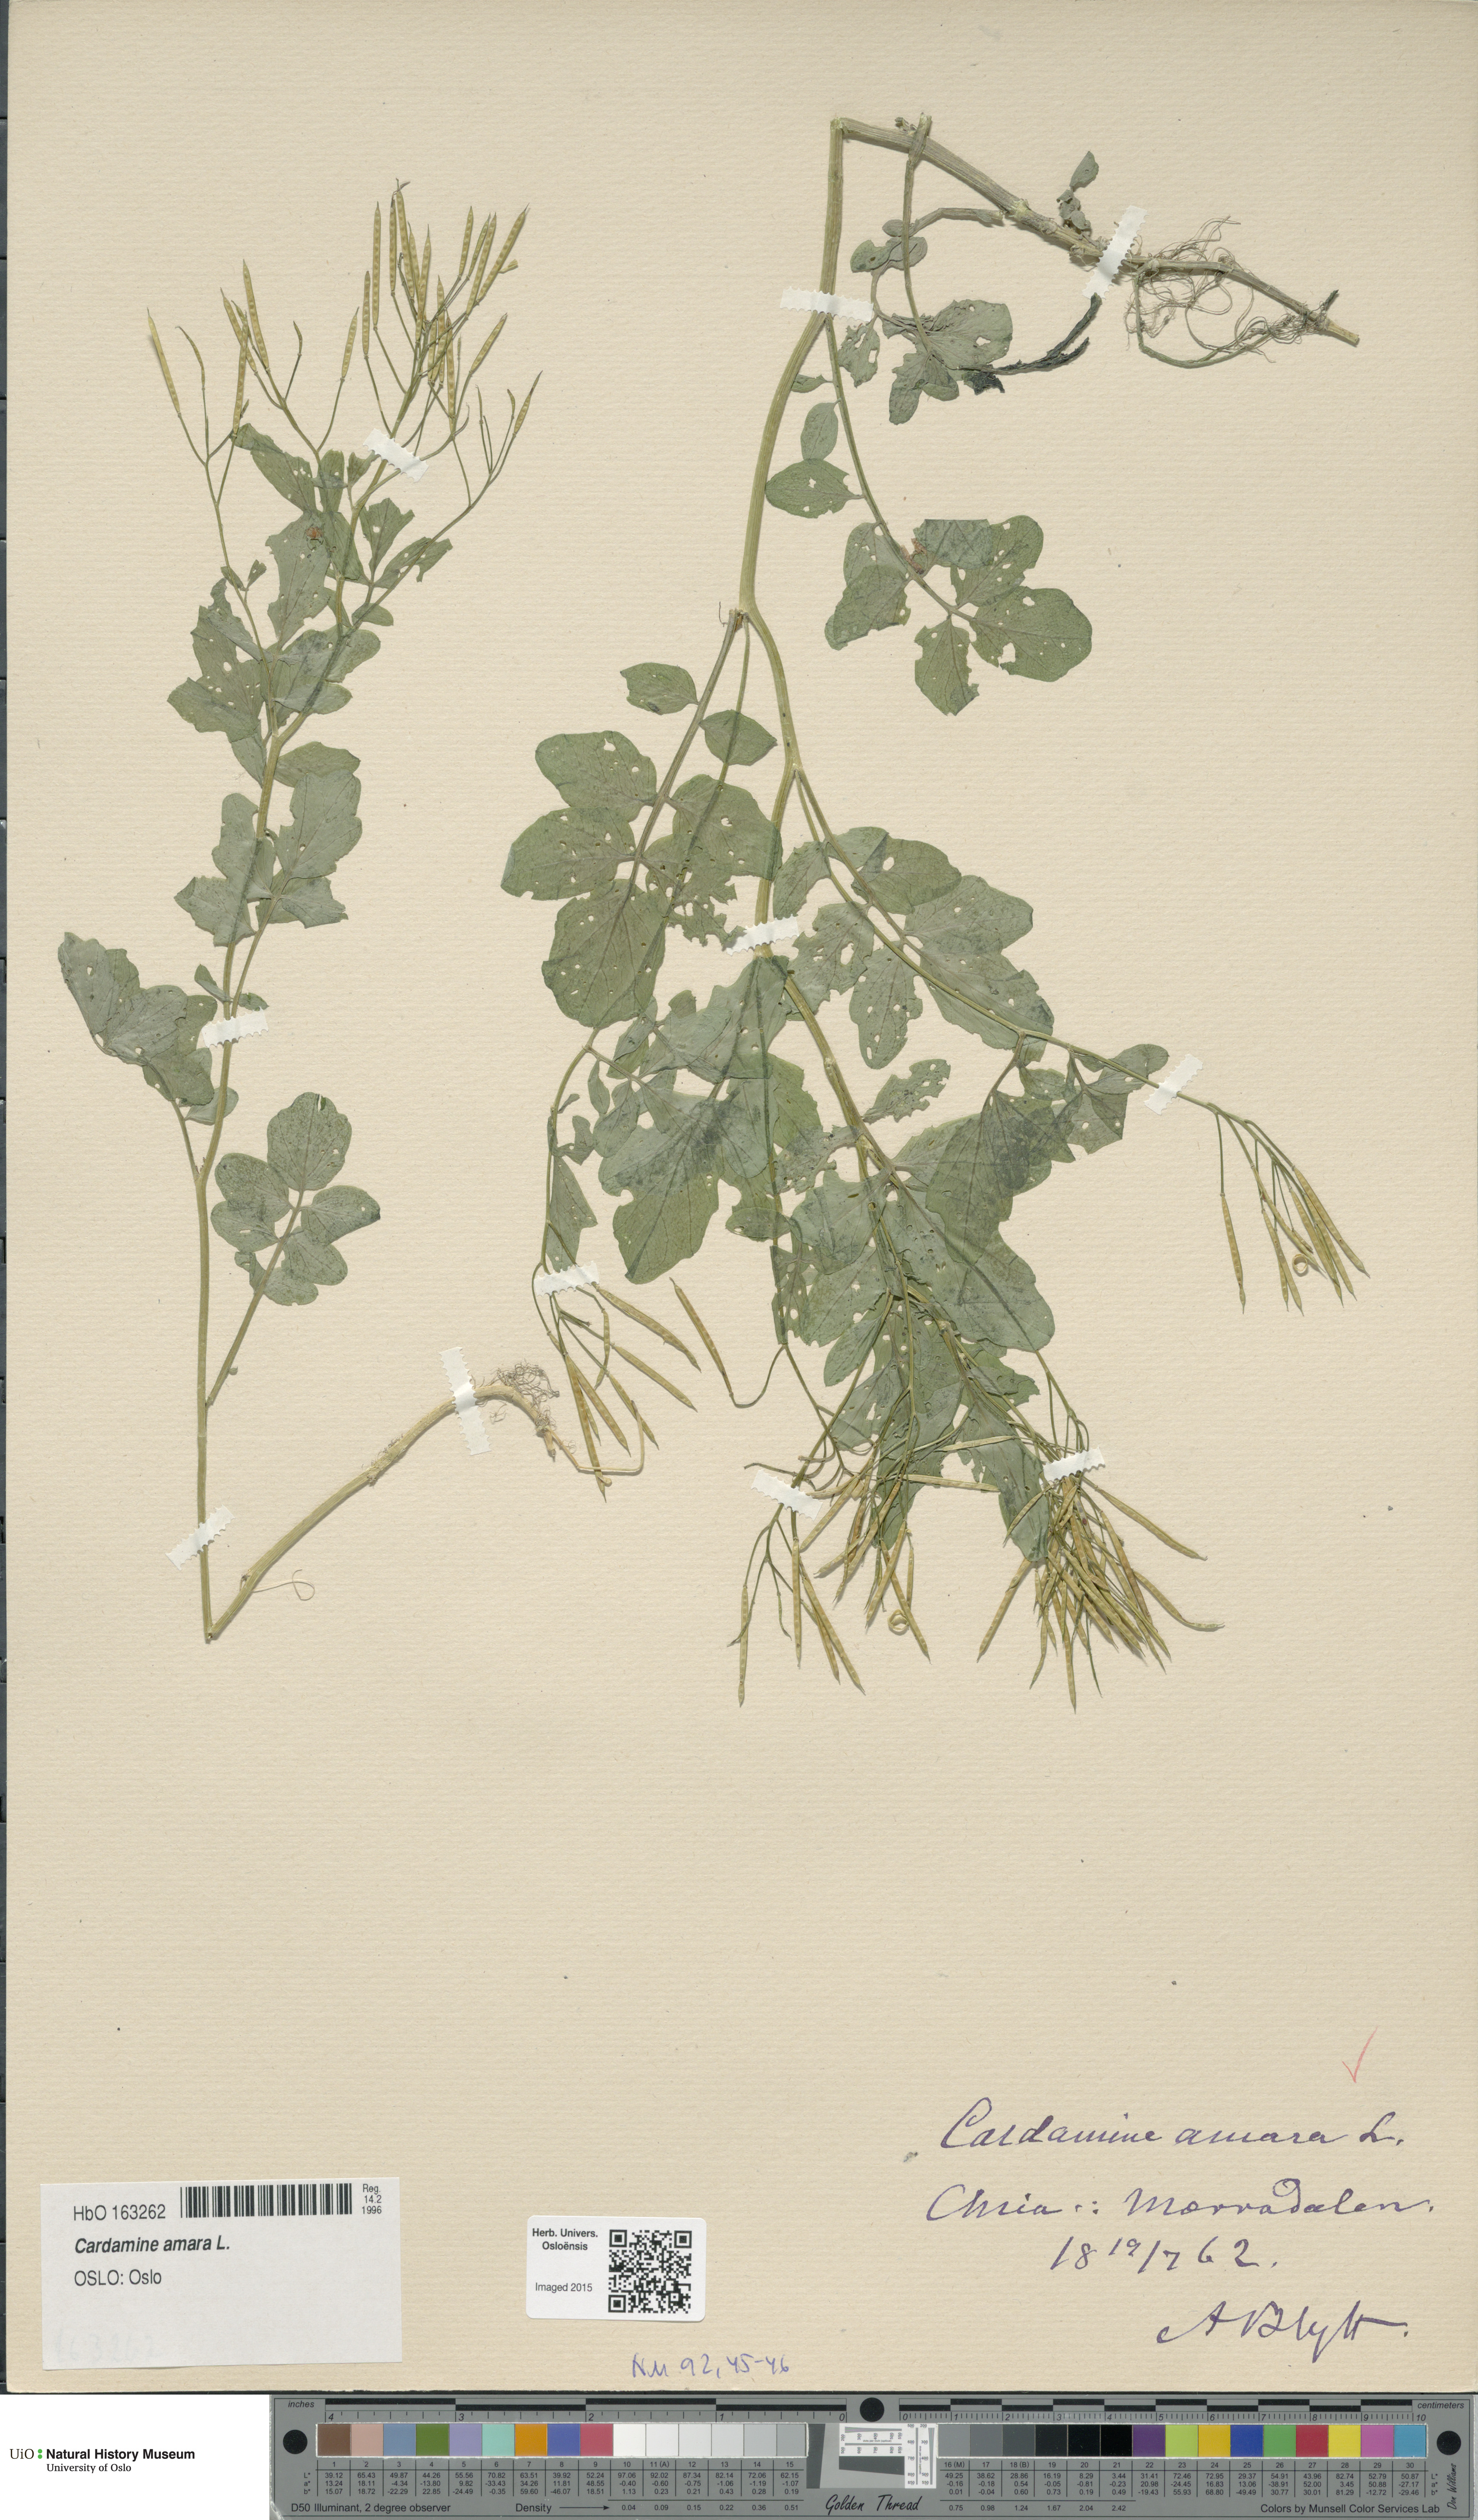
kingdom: Plantae
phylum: Tracheophyta
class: Magnoliopsida
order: Brassicales
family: Brassicaceae
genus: Cardamine
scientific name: Cardamine amara
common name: Large bitter-cress
